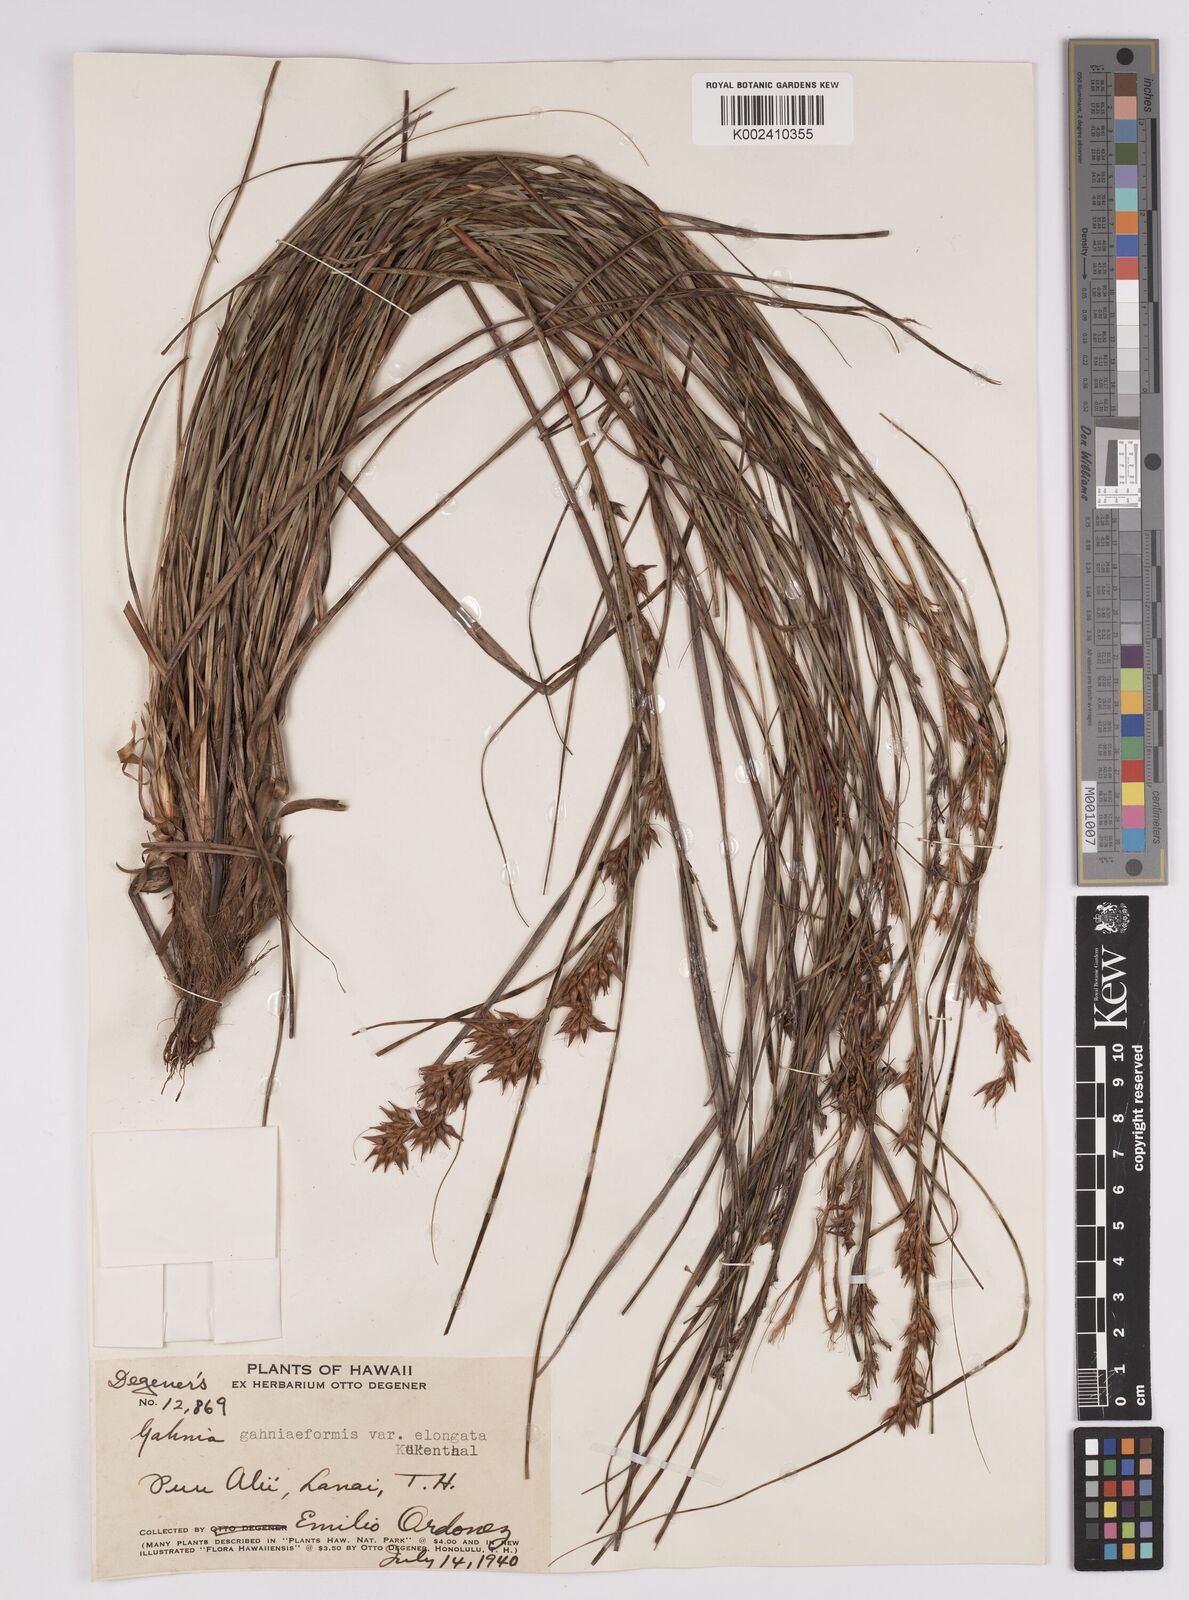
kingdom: Plantae
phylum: Tracheophyta
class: Liliopsida
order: Poales
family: Cyperaceae
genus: Morelotia
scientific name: Morelotia gahniiformis
